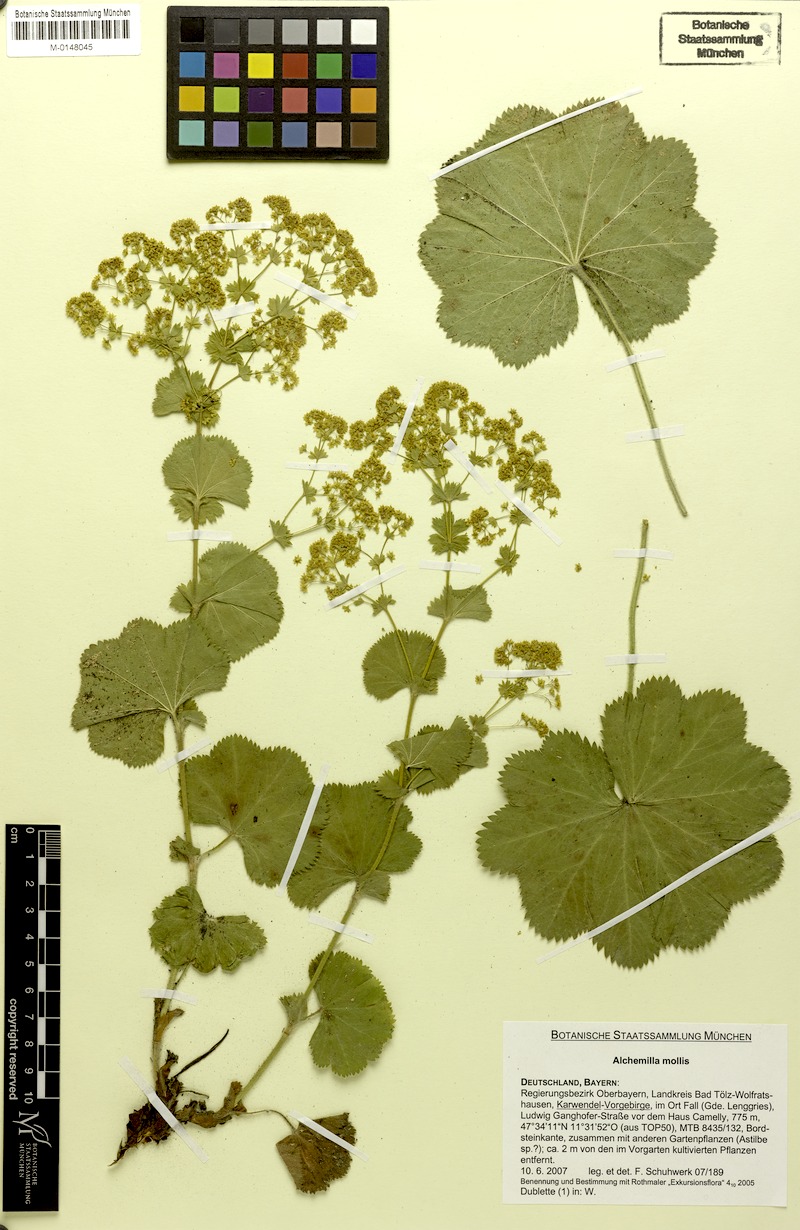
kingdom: Plantae
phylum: Tracheophyta
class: Magnoliopsida
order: Rosales
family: Rosaceae
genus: Alchemilla
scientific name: Alchemilla mollis
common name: Lady's-mantle
